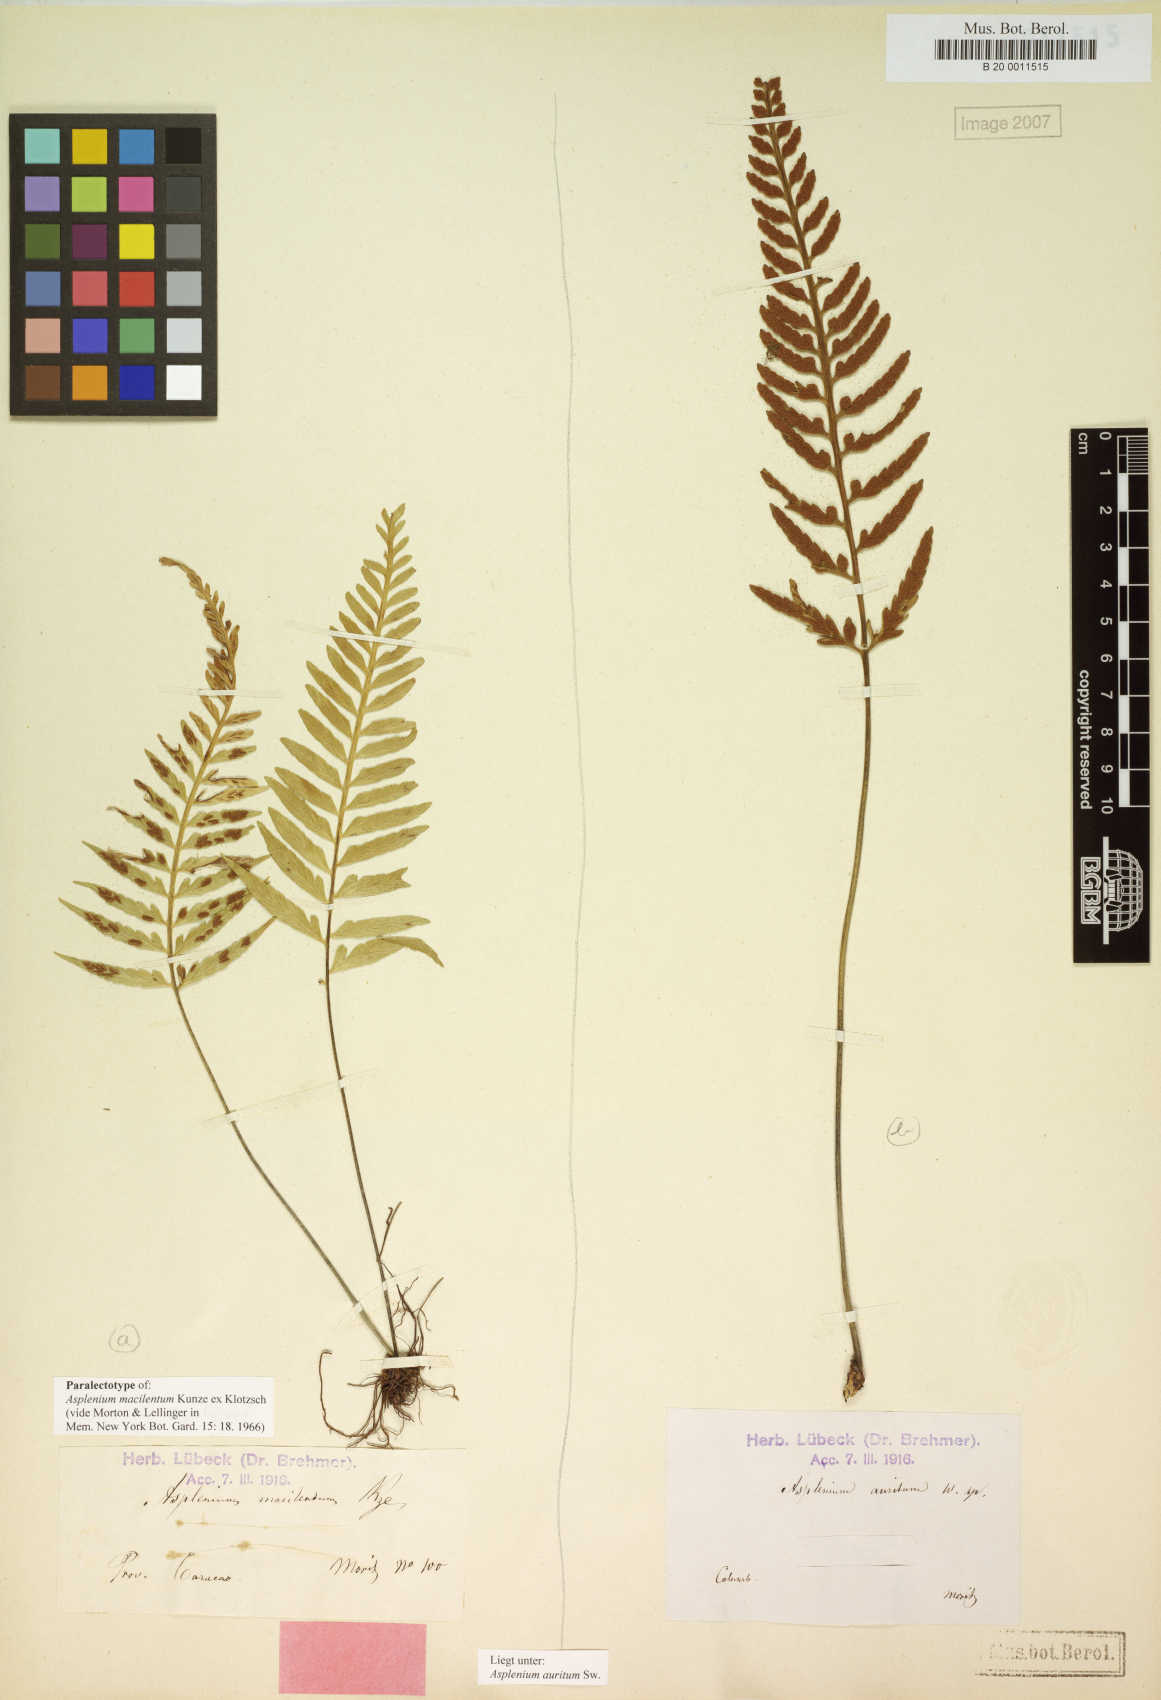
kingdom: Plantae
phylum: Tracheophyta
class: Polypodiopsida
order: Polypodiales
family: Aspleniaceae
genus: Asplenium
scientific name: Asplenium auritum
